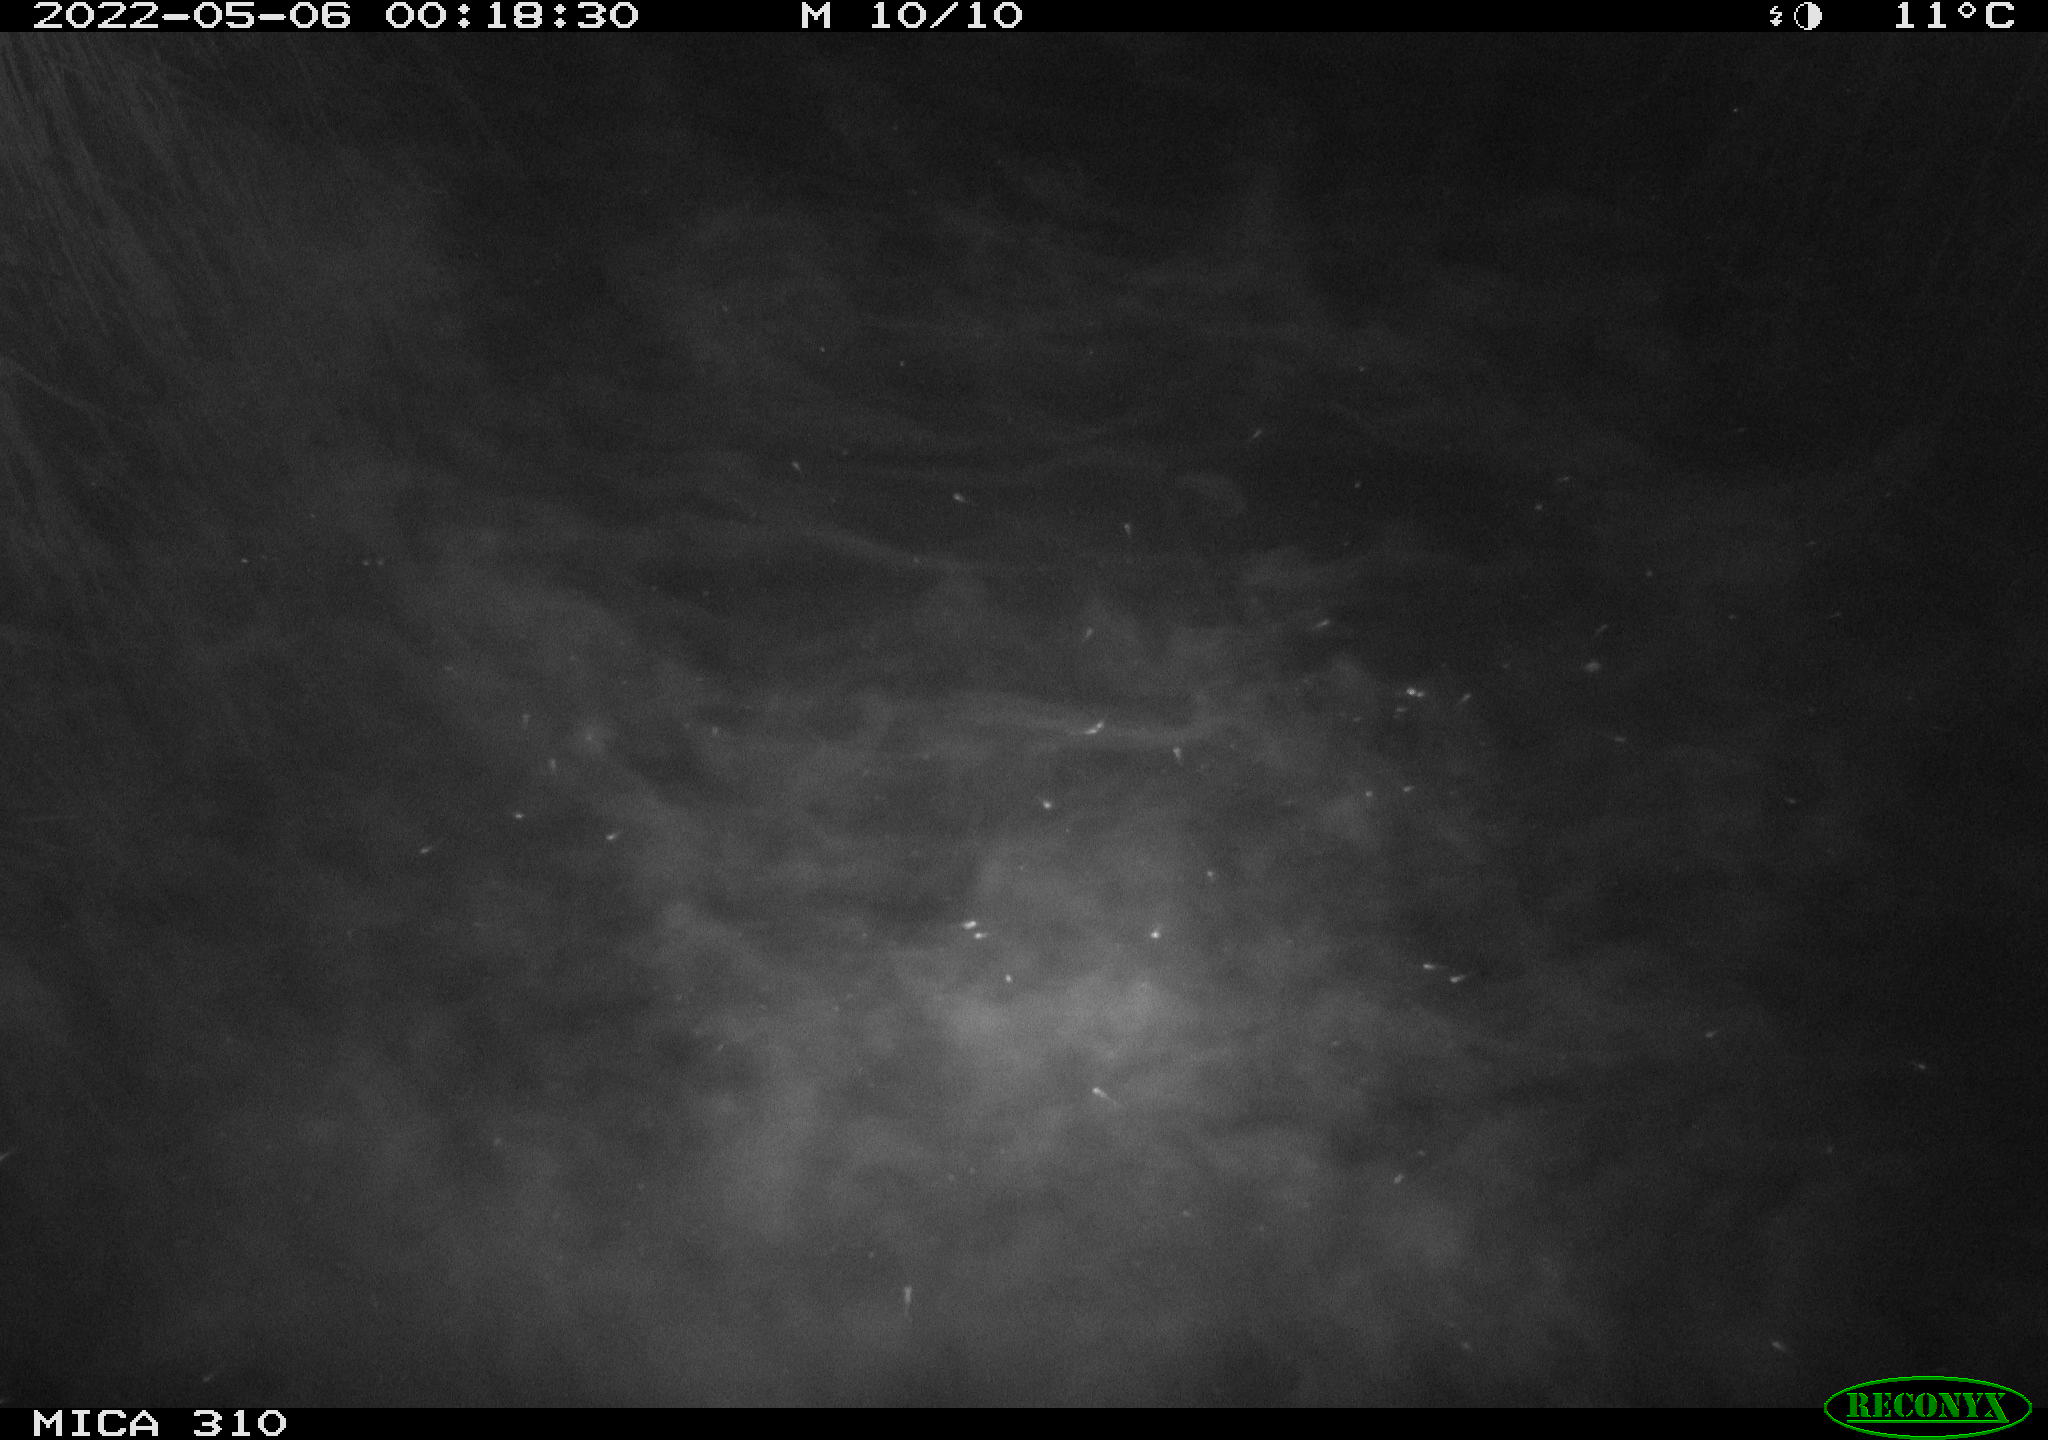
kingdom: Animalia
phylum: Chordata
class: Aves
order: Anseriformes
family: Anatidae
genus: Anas
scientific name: Anas platyrhynchos
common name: Mallard
